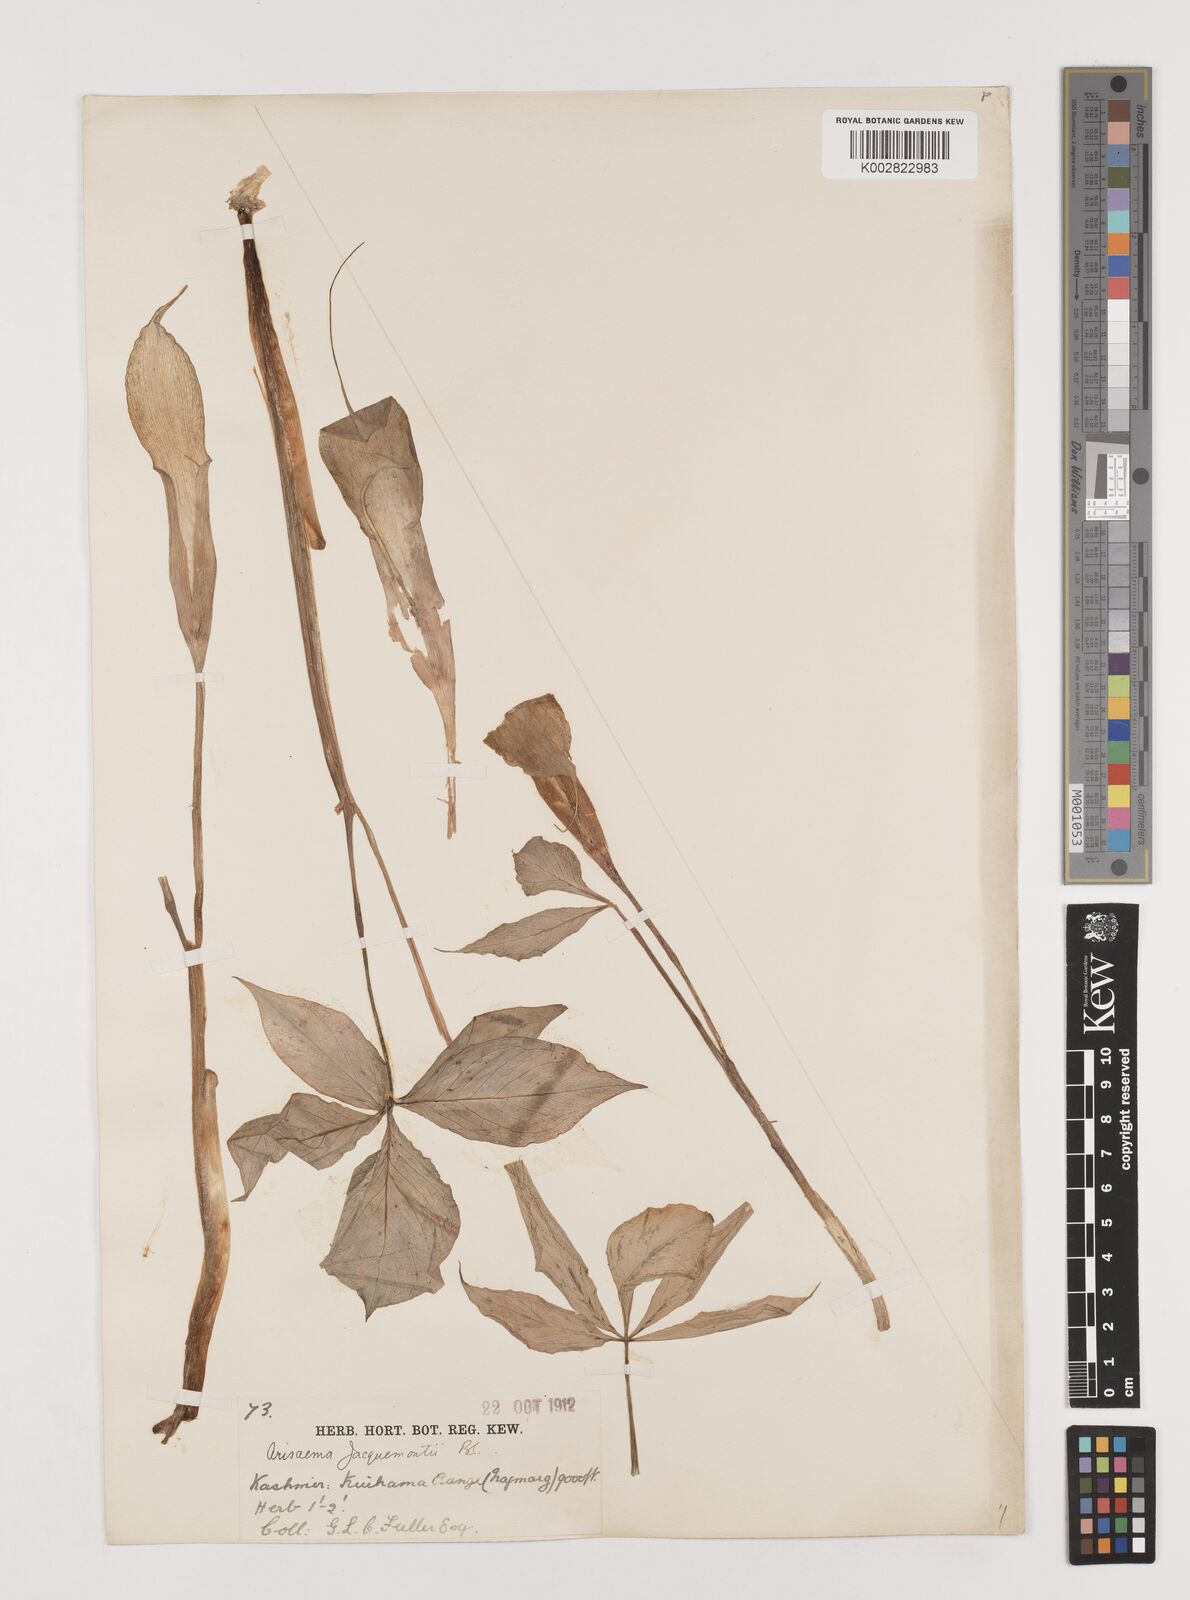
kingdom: Plantae
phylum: Tracheophyta
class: Liliopsida
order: Alismatales
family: Araceae
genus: Arisaema
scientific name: Arisaema
